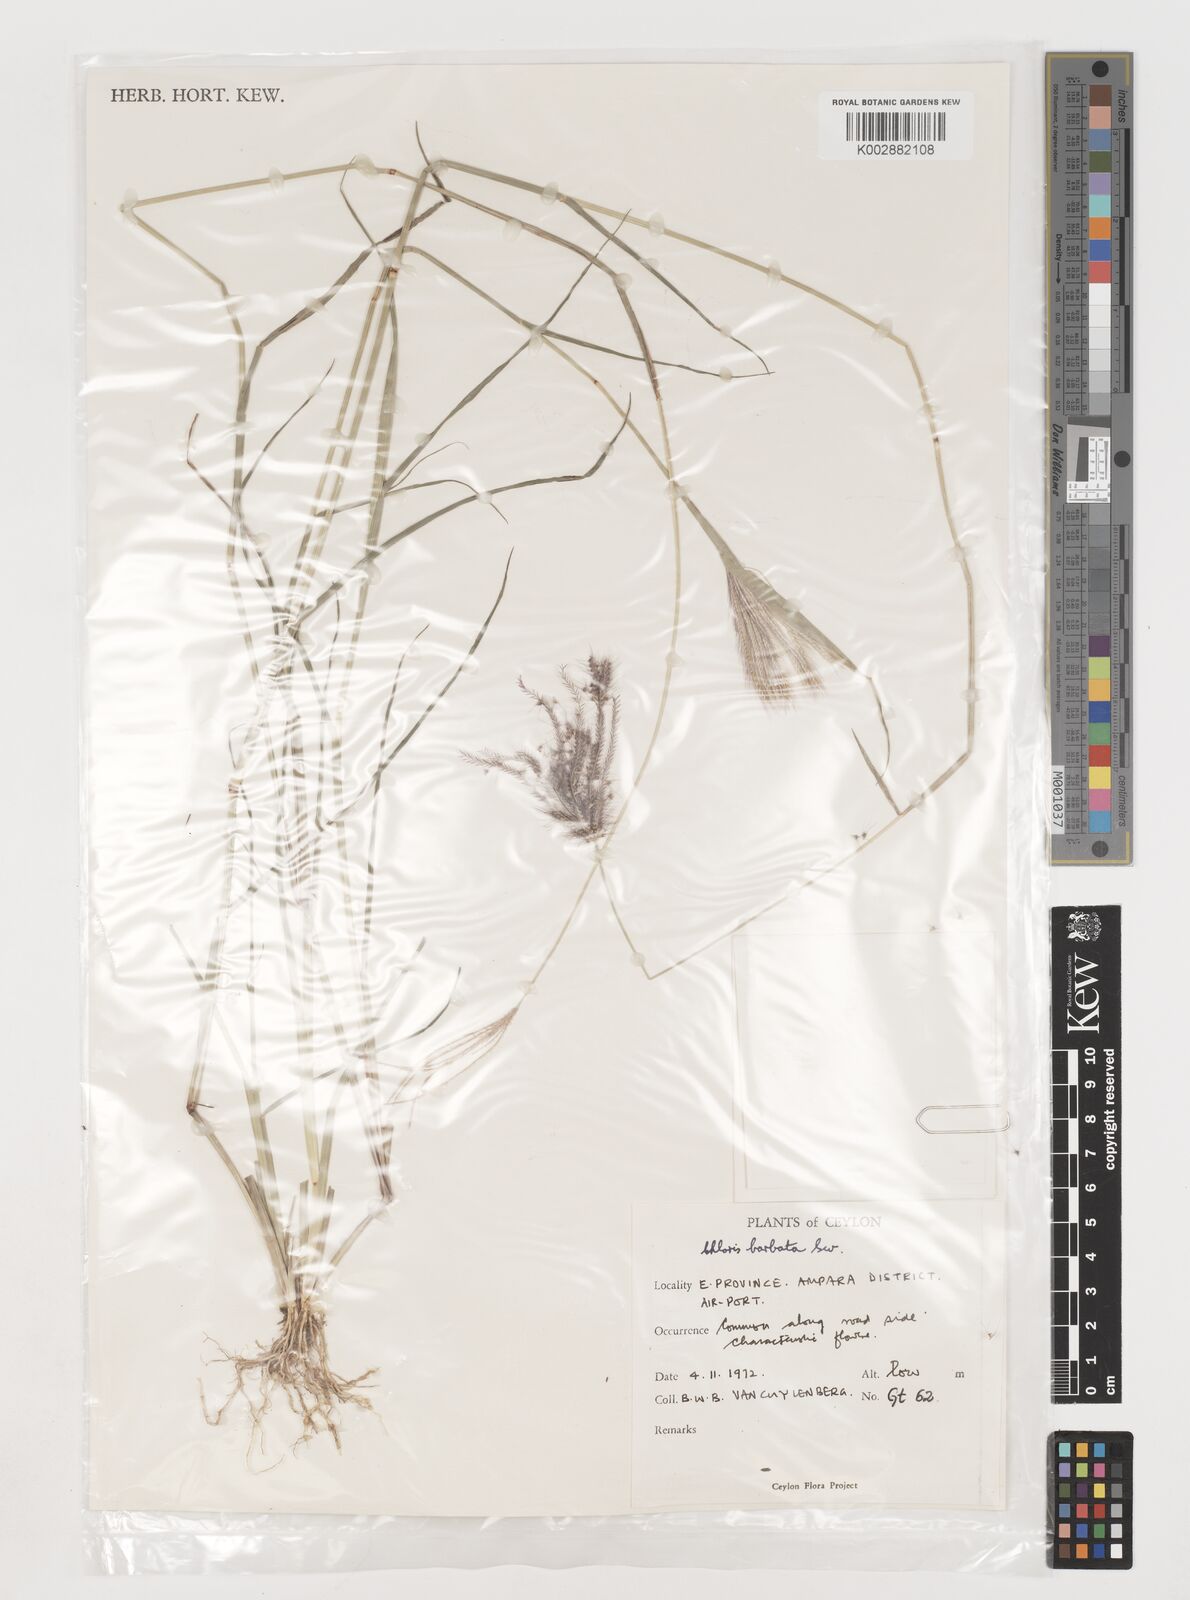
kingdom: Plantae
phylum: Tracheophyta
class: Liliopsida
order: Poales
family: Poaceae
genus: Chloris
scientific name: Chloris barbata
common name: Swollen fingergrass
